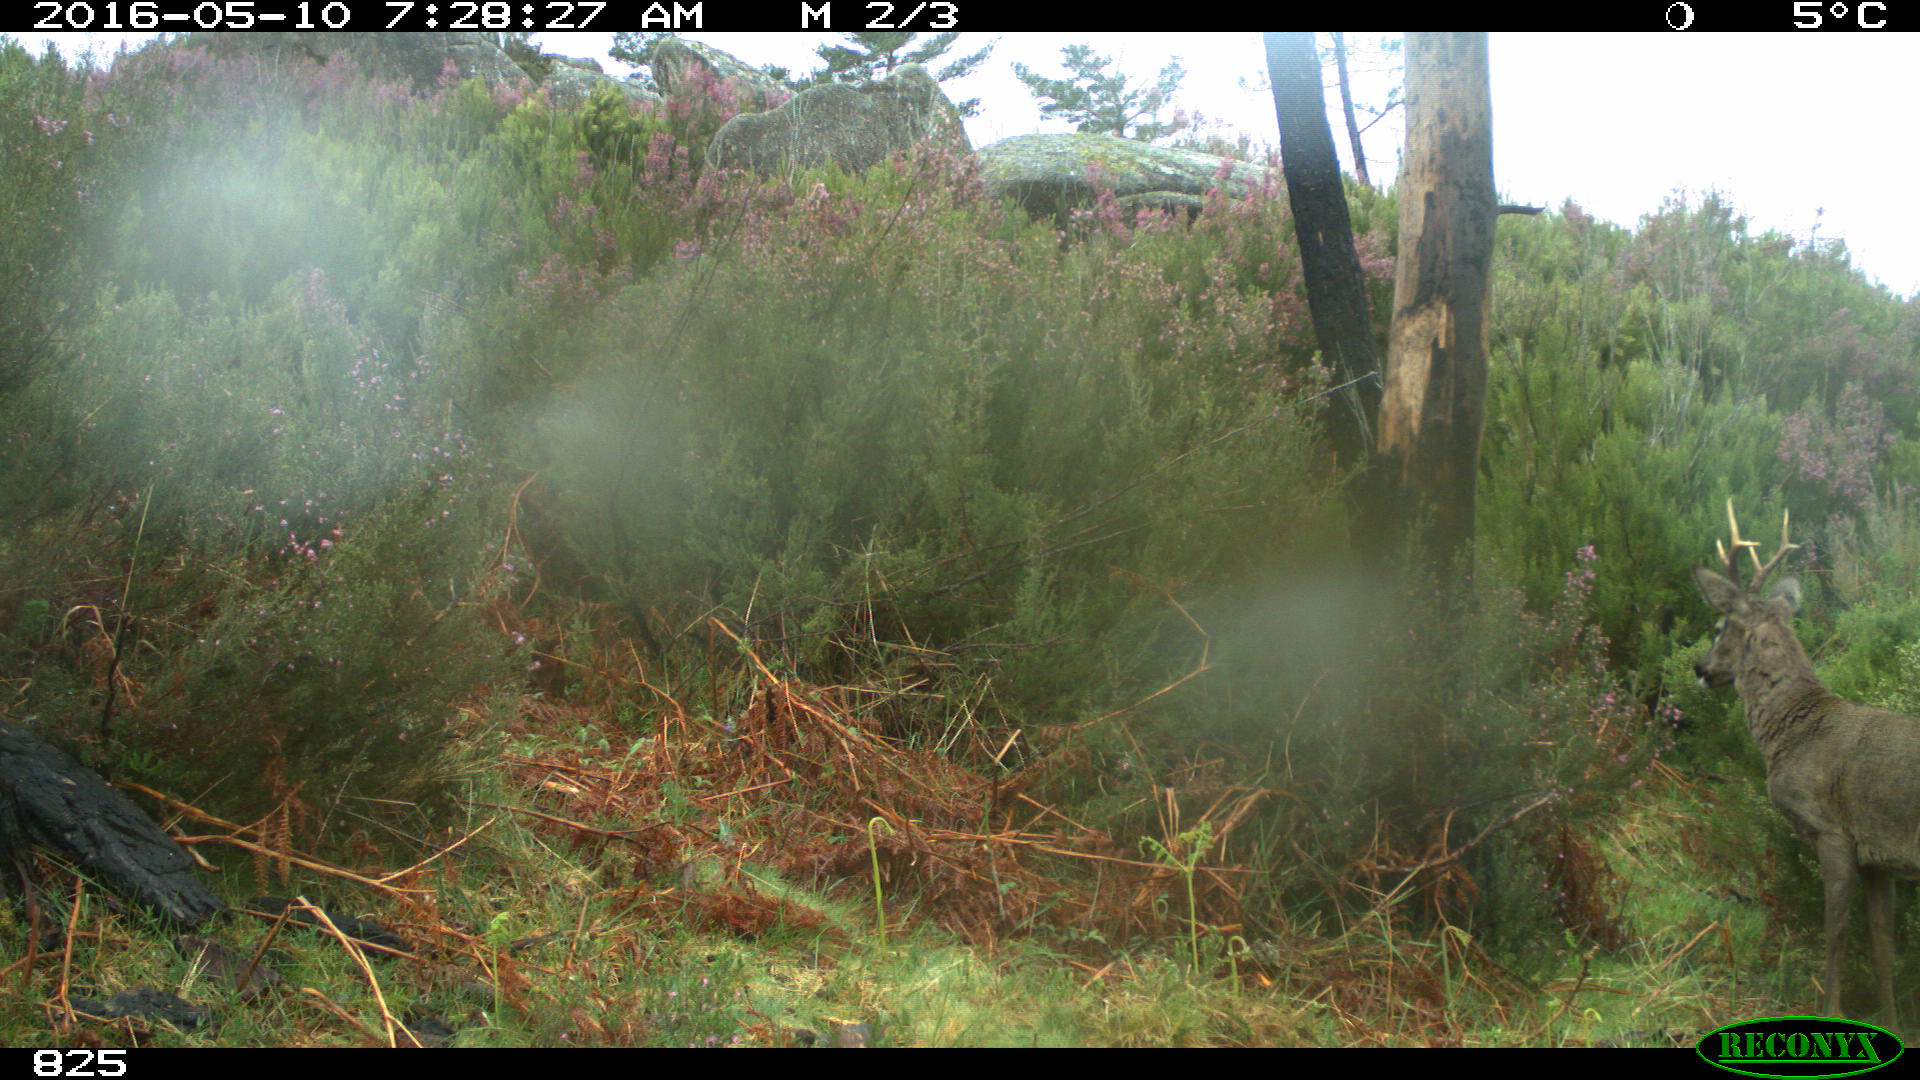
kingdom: Animalia
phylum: Chordata
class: Mammalia
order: Artiodactyla
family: Cervidae
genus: Capreolus
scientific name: Capreolus capreolus
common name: Western roe deer
